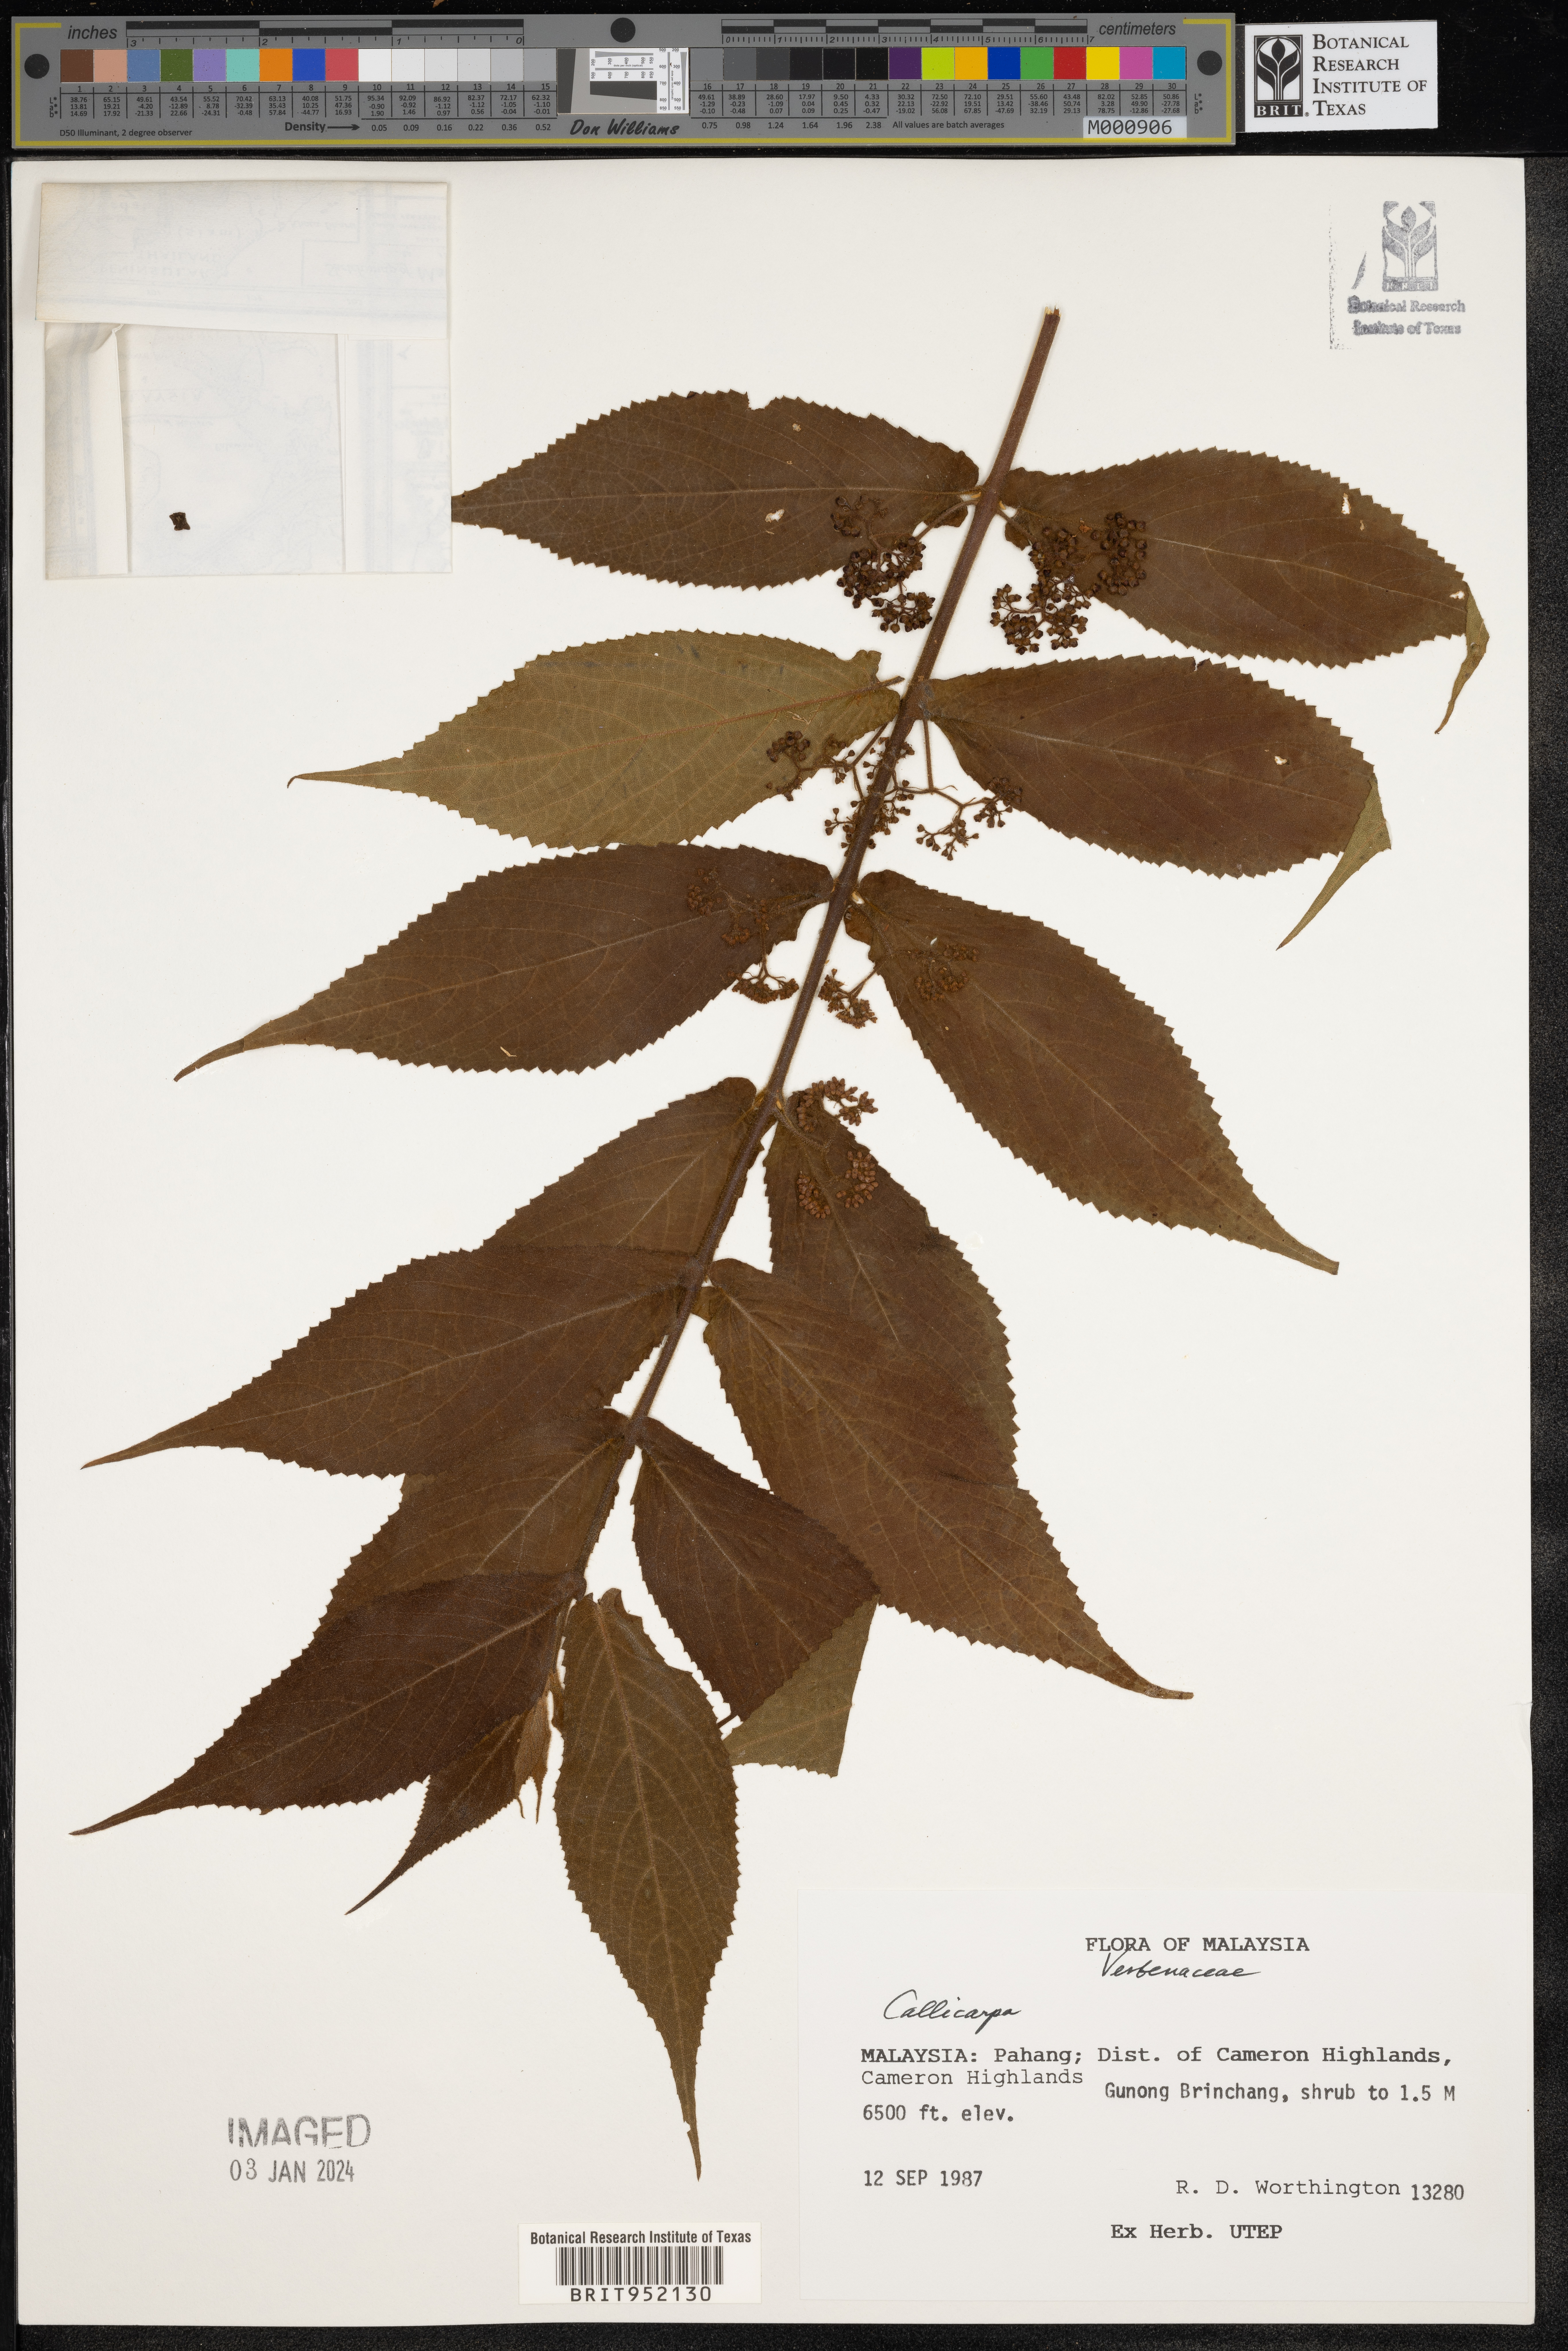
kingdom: Plantae
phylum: Tracheophyta
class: Magnoliopsida
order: Lamiales
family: Lamiaceae
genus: Callicarpa
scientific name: Callicarpa
